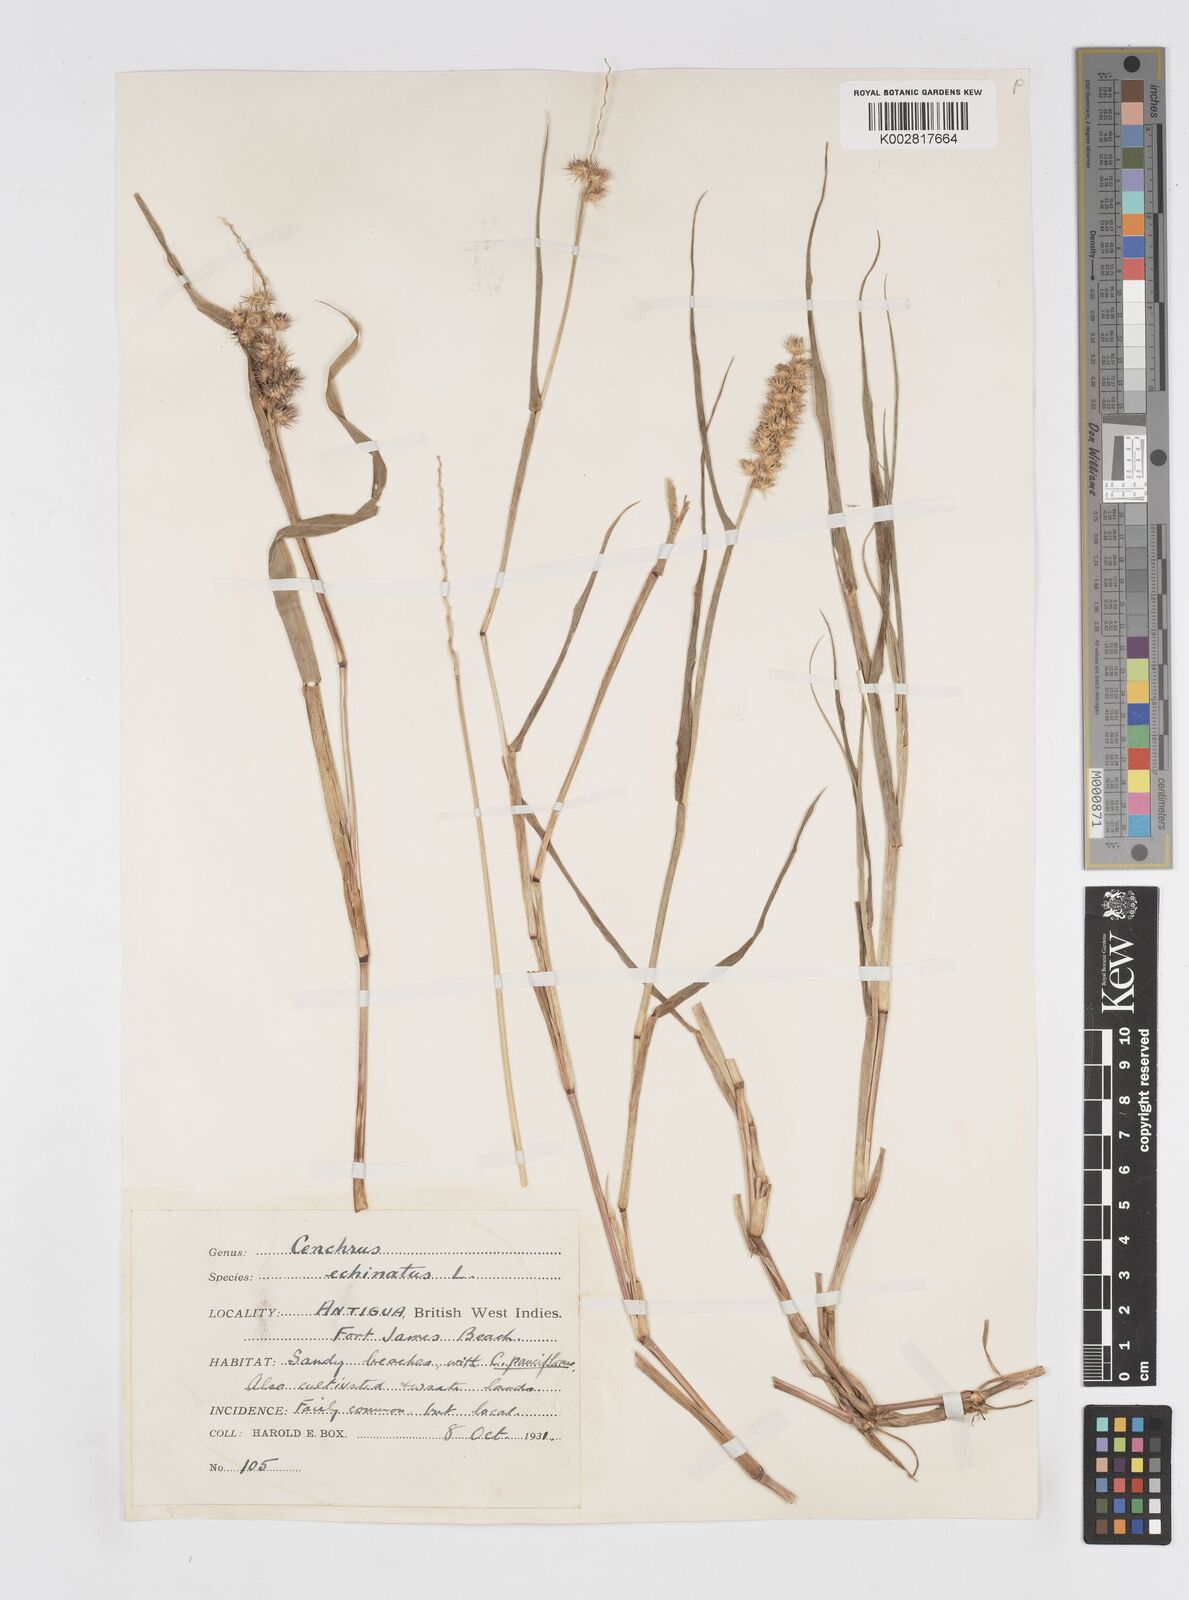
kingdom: Plantae
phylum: Tracheophyta
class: Liliopsida
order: Poales
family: Poaceae
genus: Cenchrus
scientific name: Cenchrus
